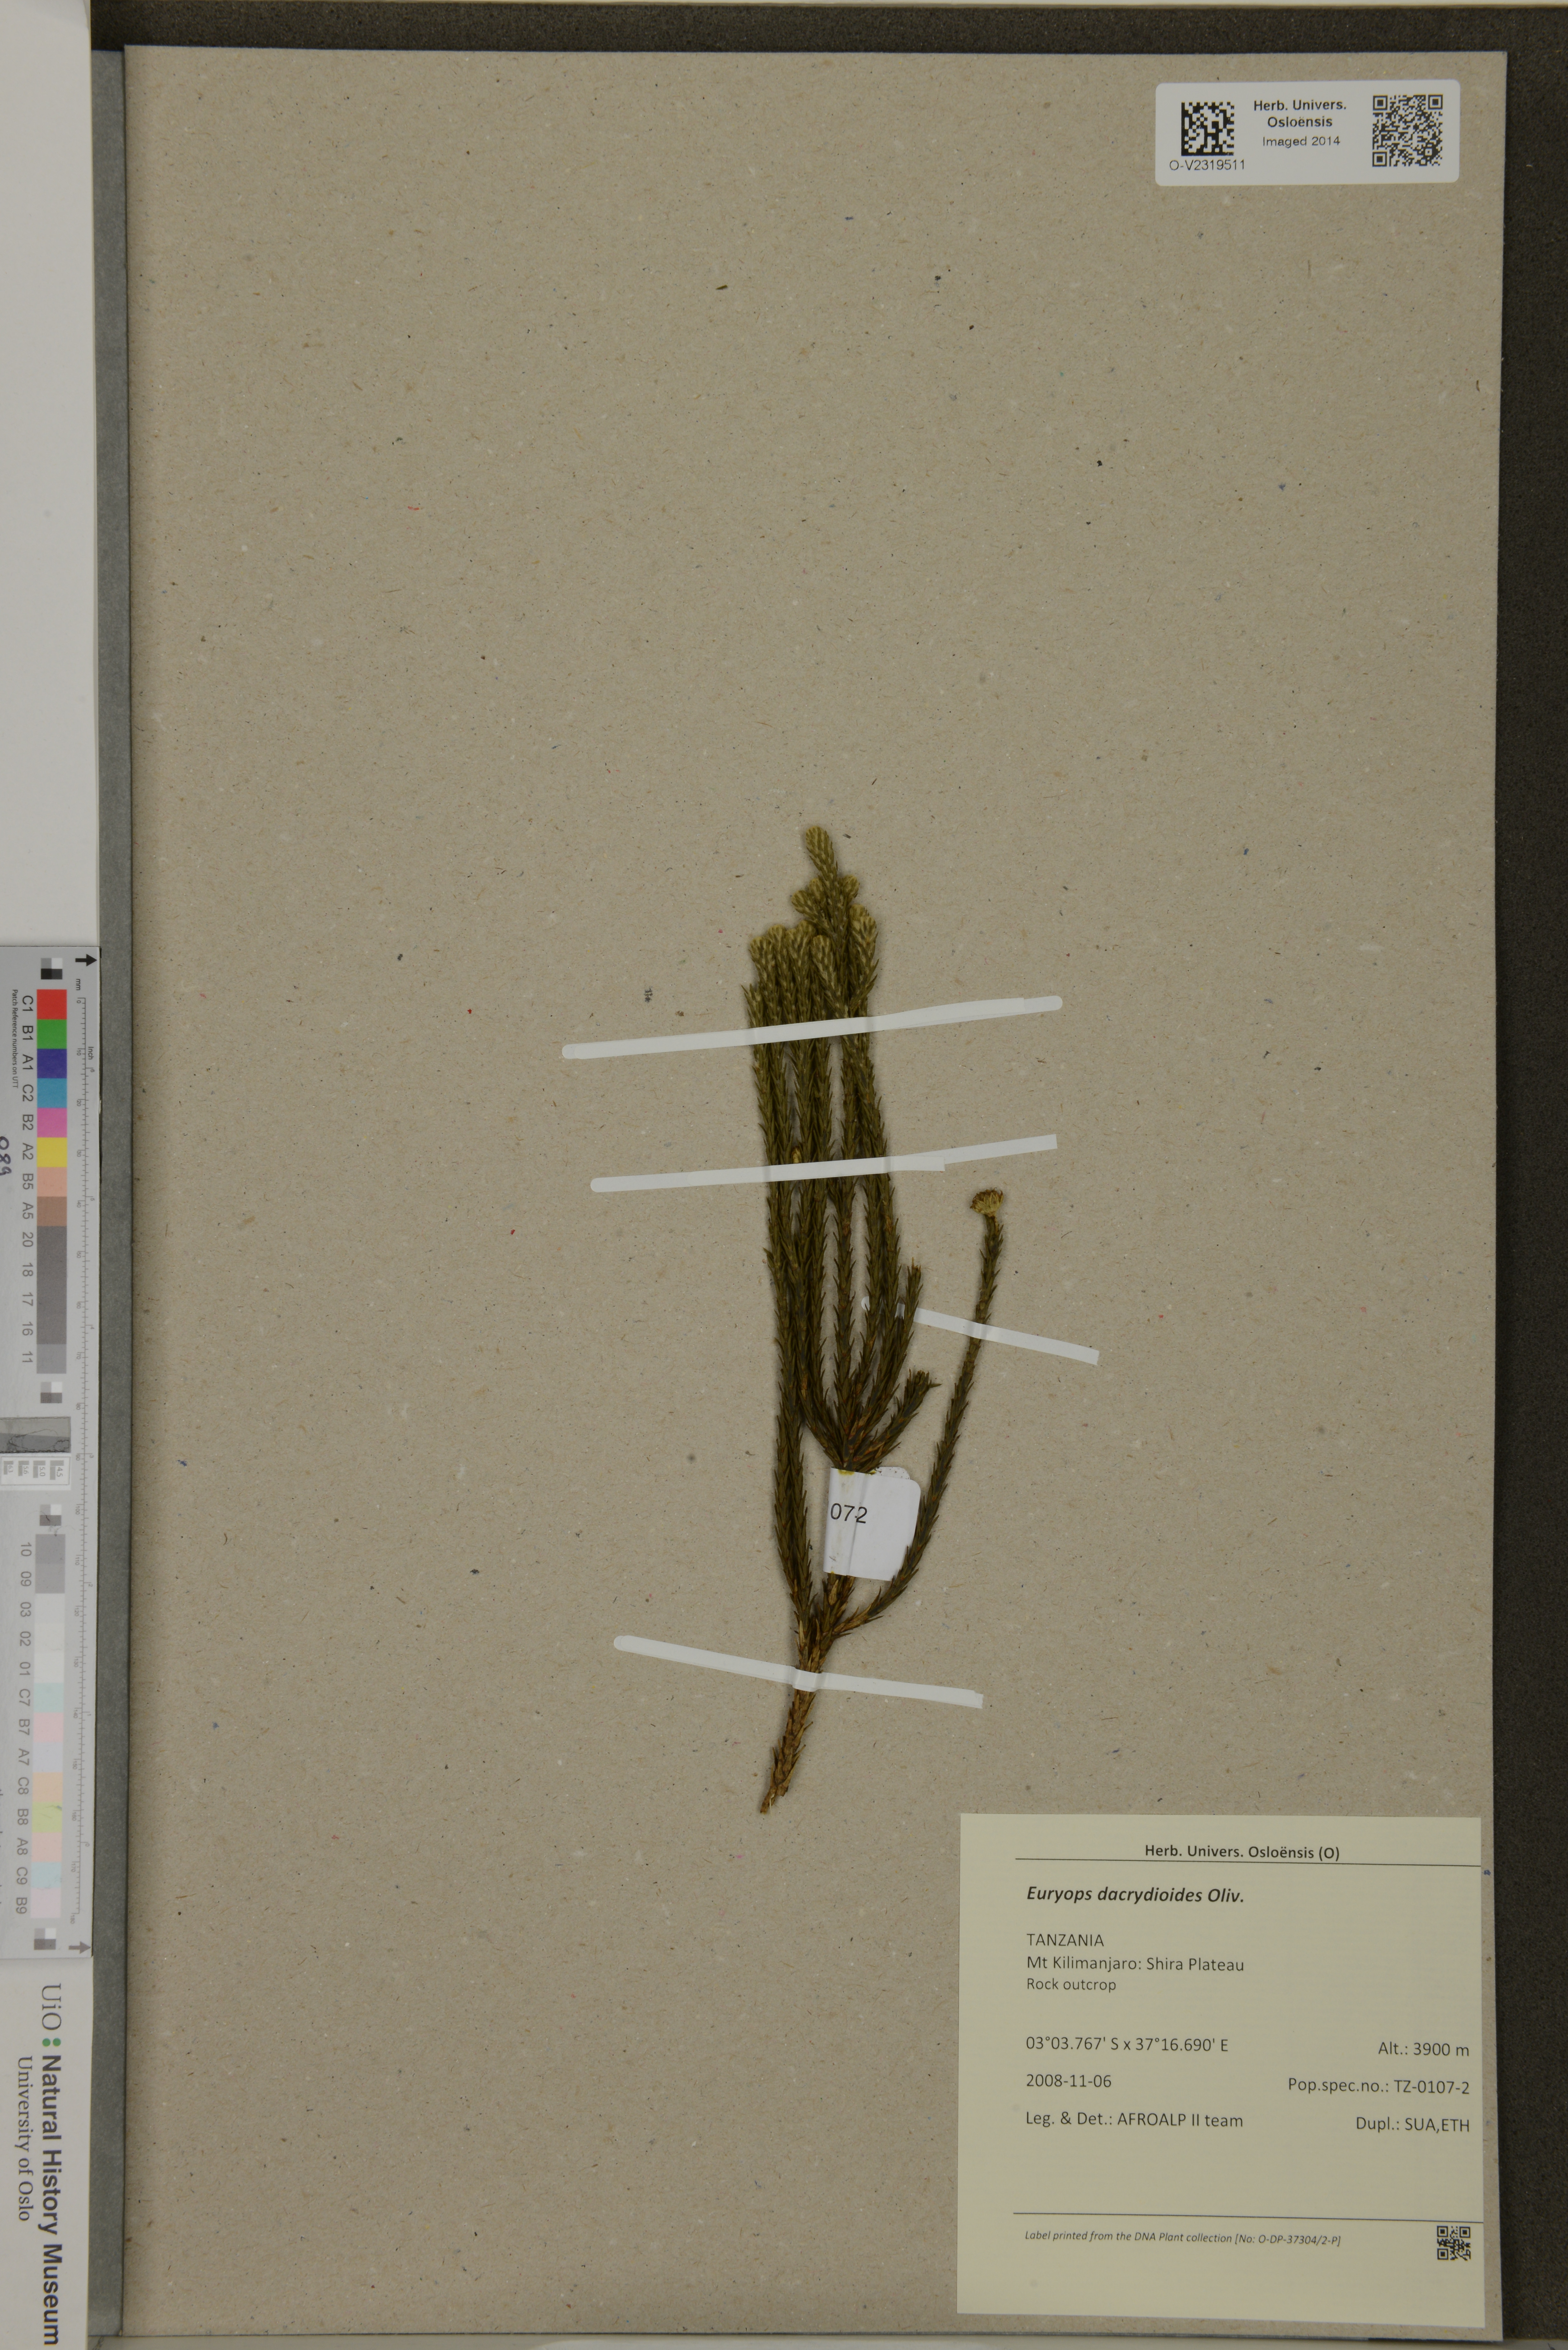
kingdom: Plantae
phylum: Tracheophyta
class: Magnoliopsida
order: Asterales
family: Asteraceae
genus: Euryops
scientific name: Euryops dacrydioides
